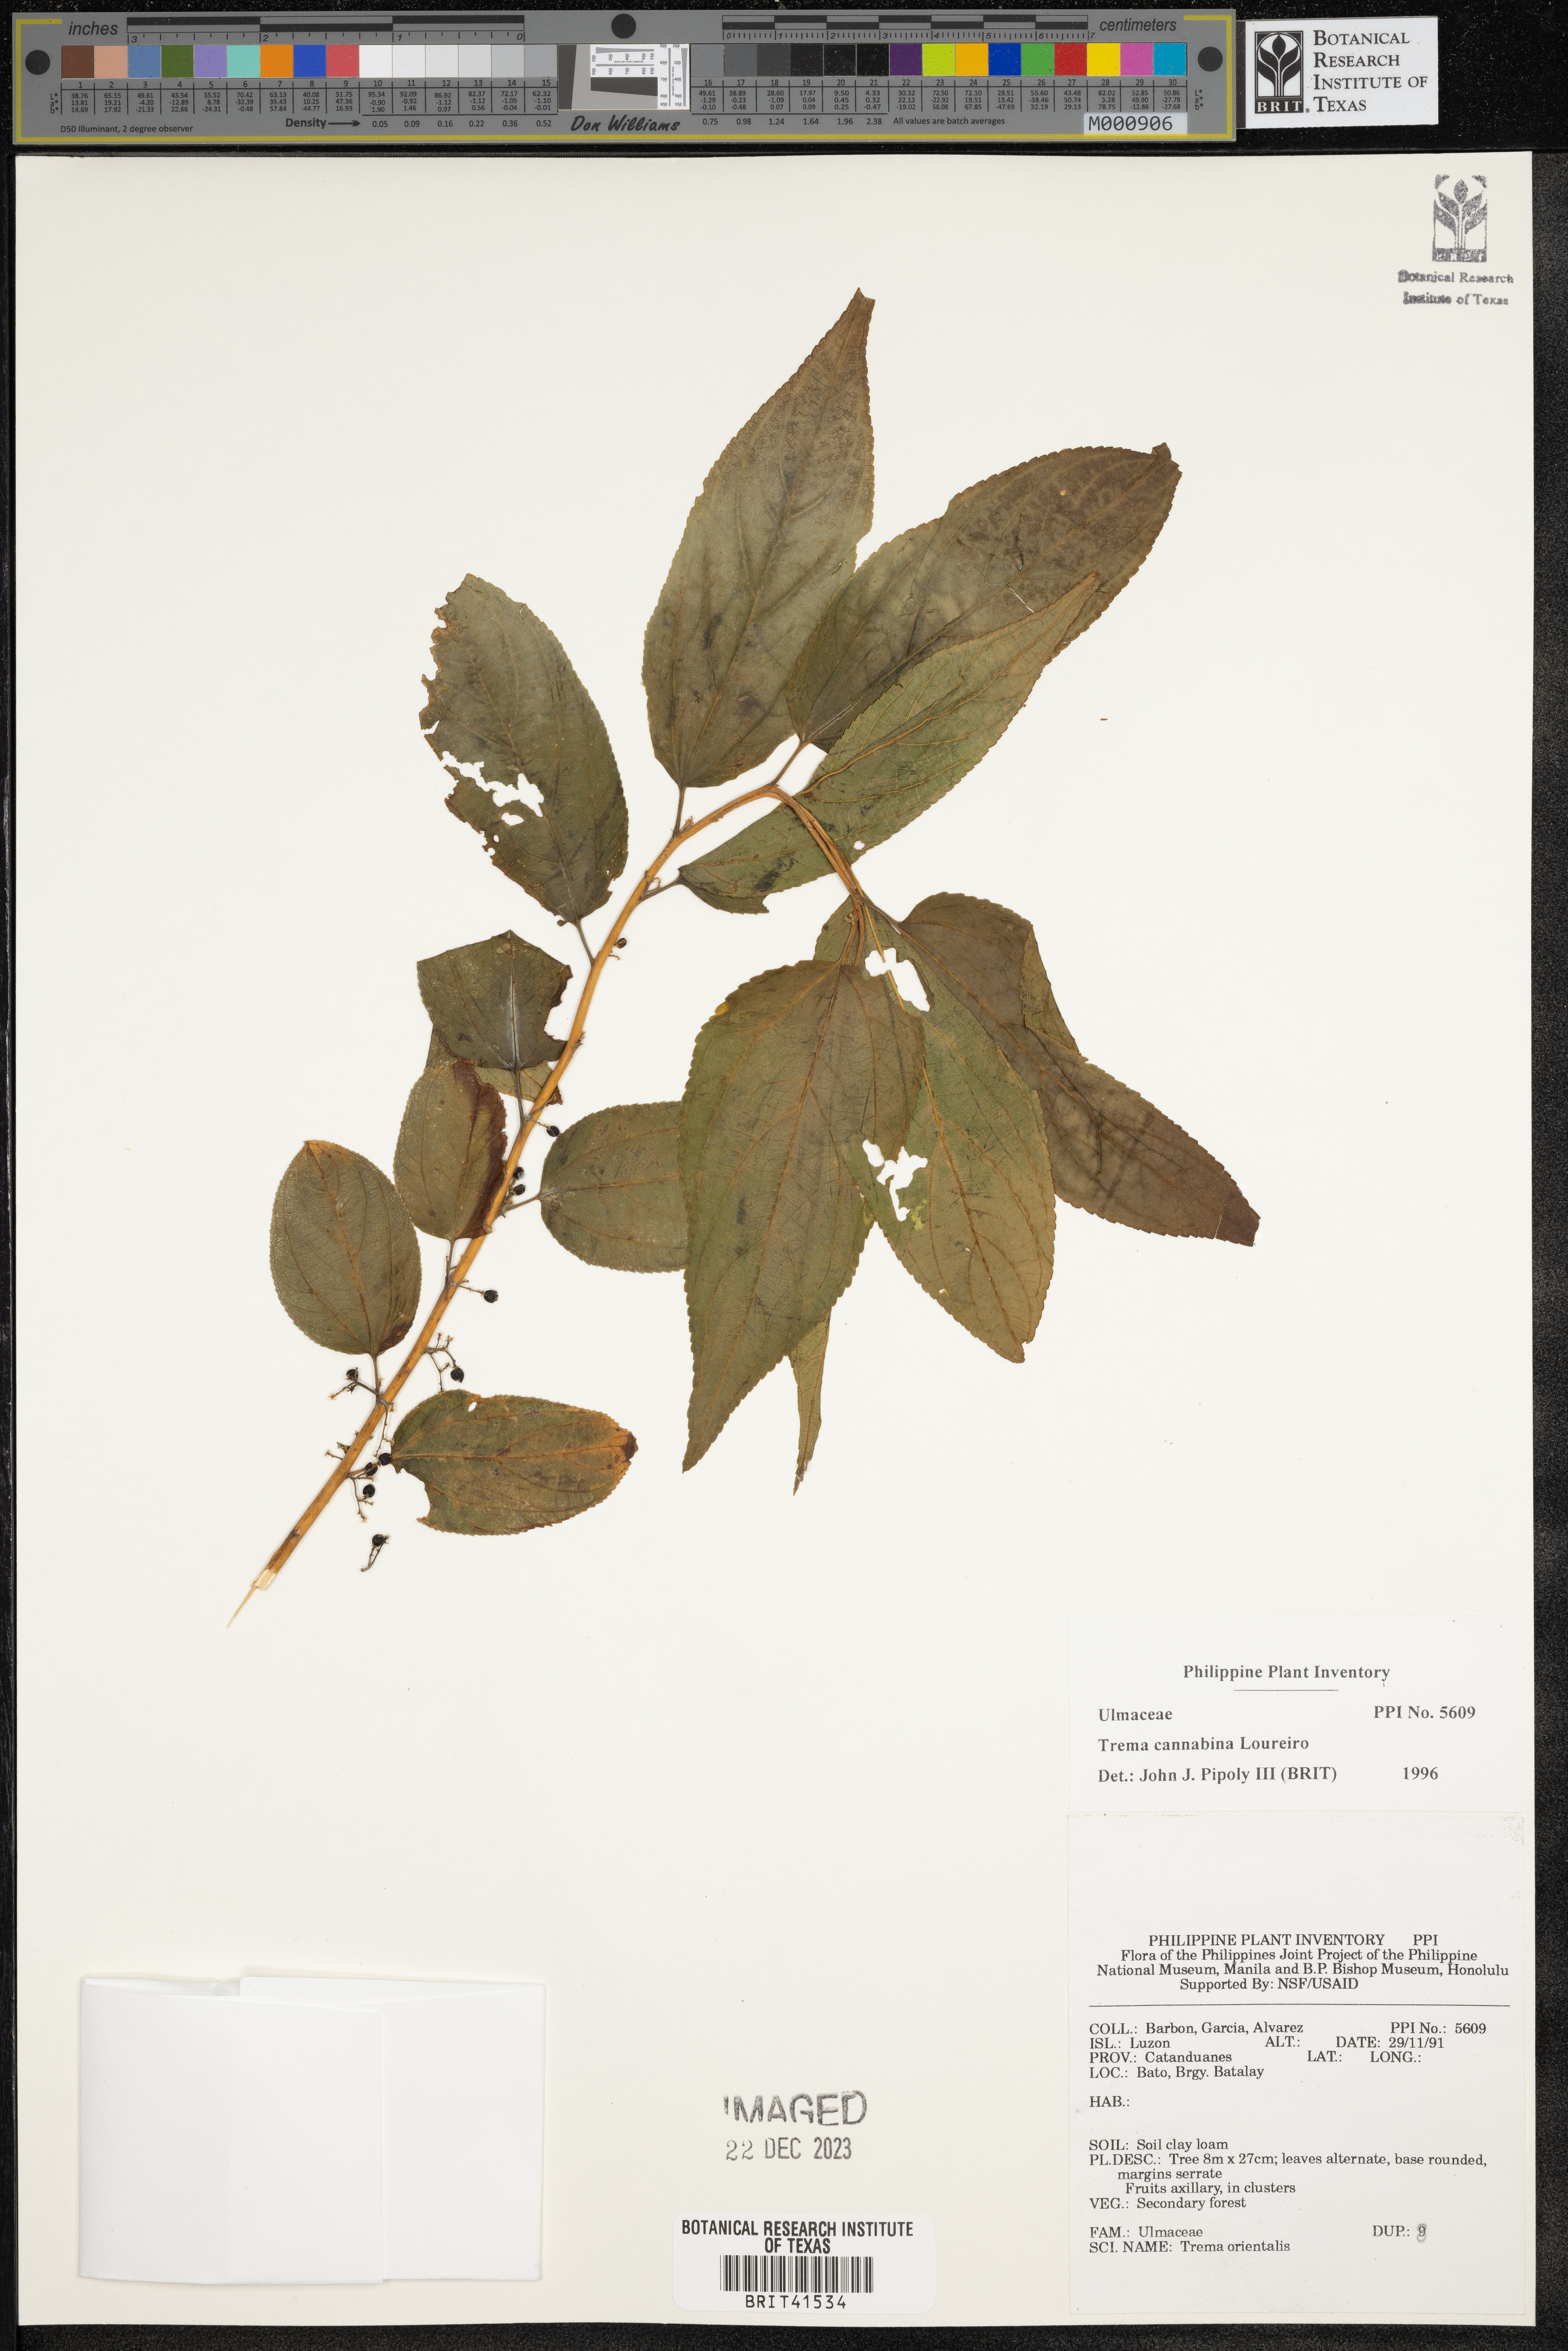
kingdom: Plantae
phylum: Tracheophyta
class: Magnoliopsida
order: Rosales
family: Cannabaceae
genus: Trema
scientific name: Trema cannabina
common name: Poison-peach
